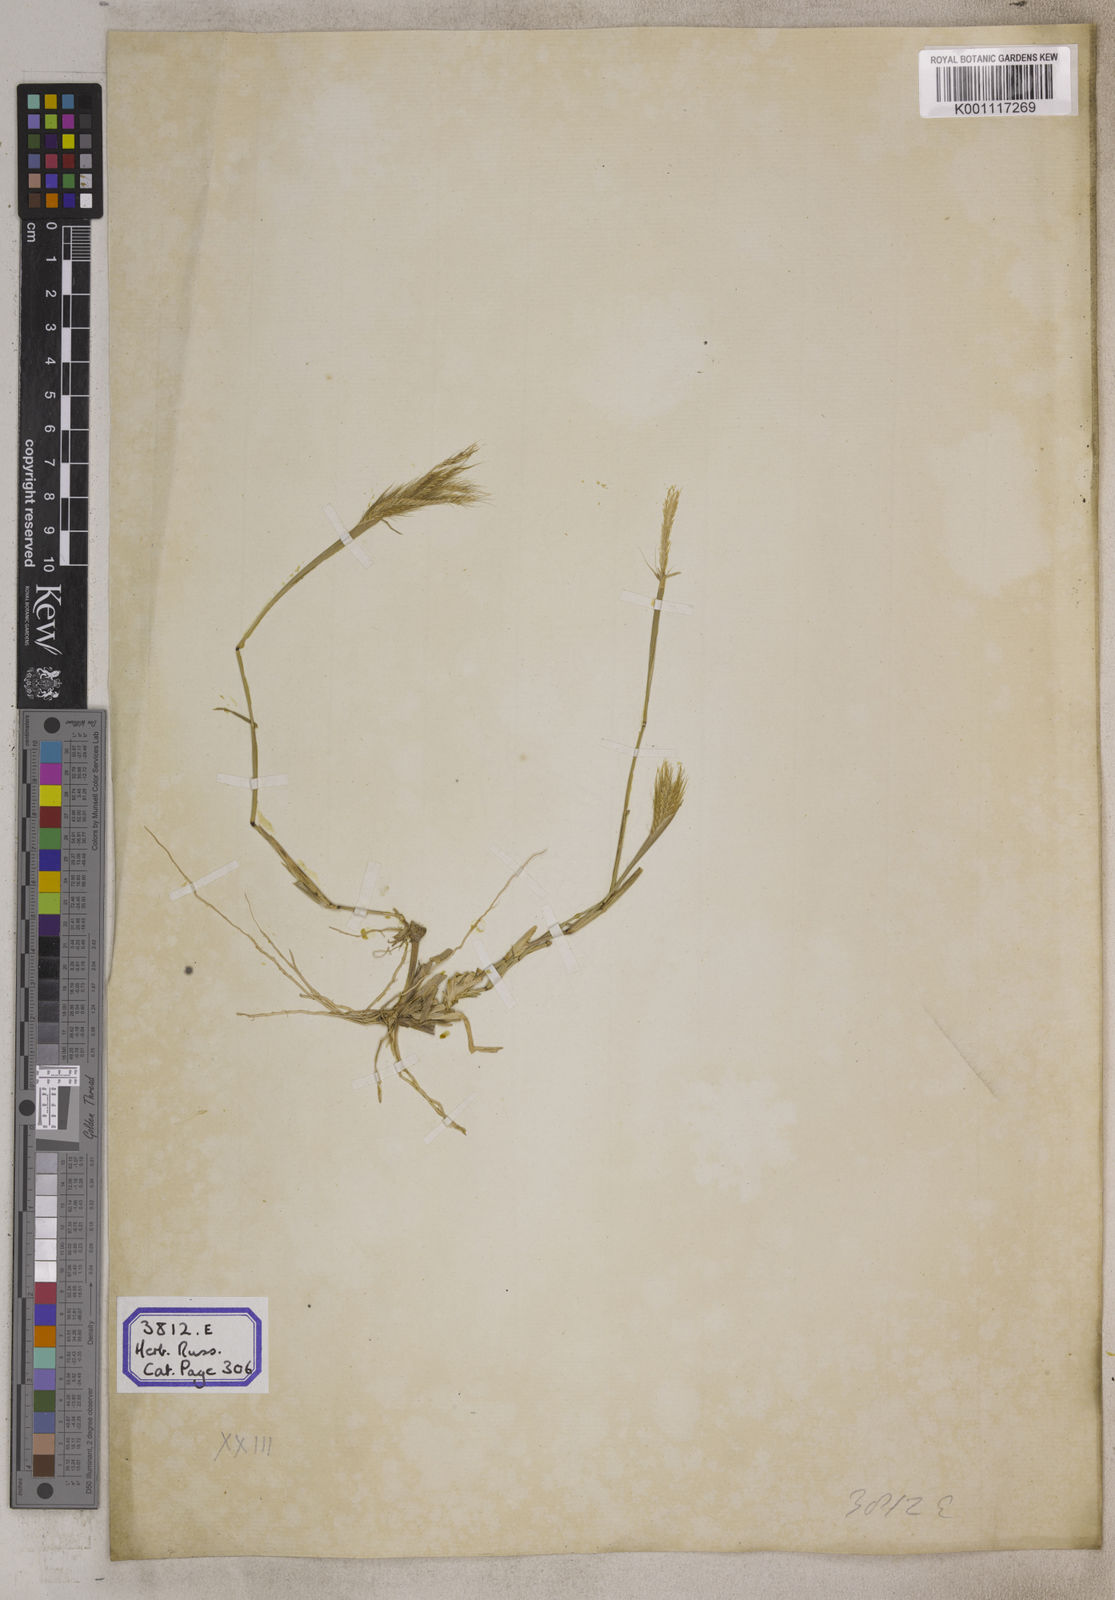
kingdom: Plantae
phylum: Tracheophyta
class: Liliopsida
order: Poales
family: Poaceae
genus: Chloris
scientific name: Chloris
